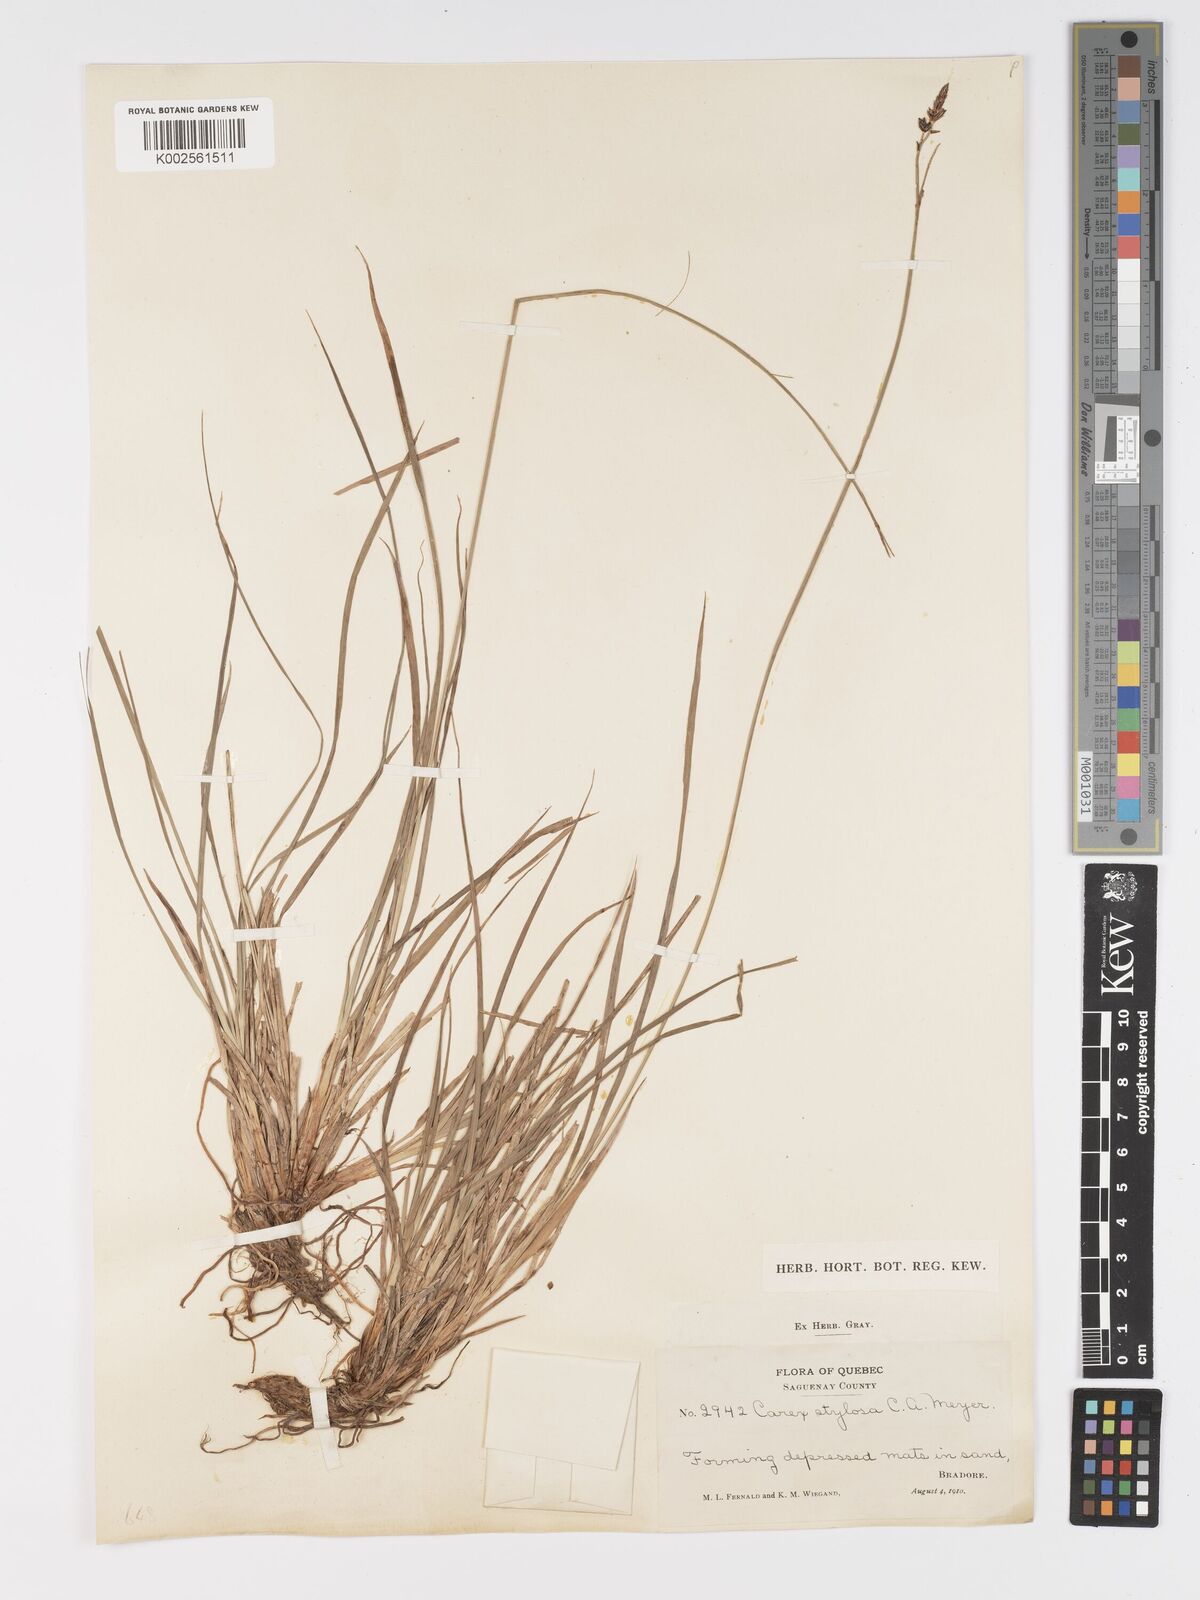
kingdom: Plantae
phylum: Tracheophyta
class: Liliopsida
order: Poales
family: Cyperaceae
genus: Carex
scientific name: Carex stylosa
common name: Long-styled sedge
